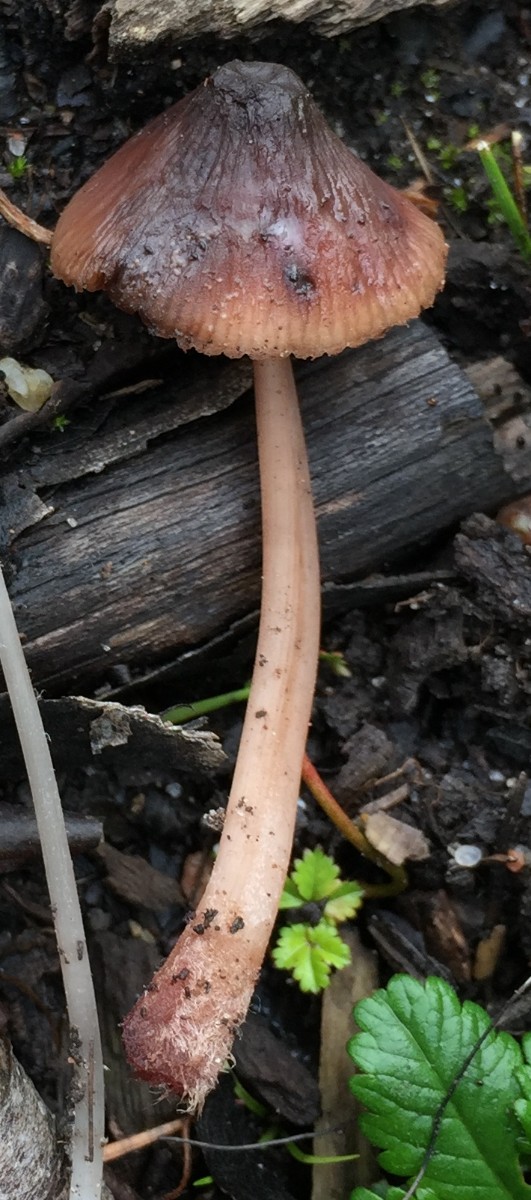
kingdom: Fungi
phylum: Basidiomycota
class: Agaricomycetes
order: Agaricales
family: Mycenaceae
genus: Mycena
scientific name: Mycena haematopus
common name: blødende huesvamp
